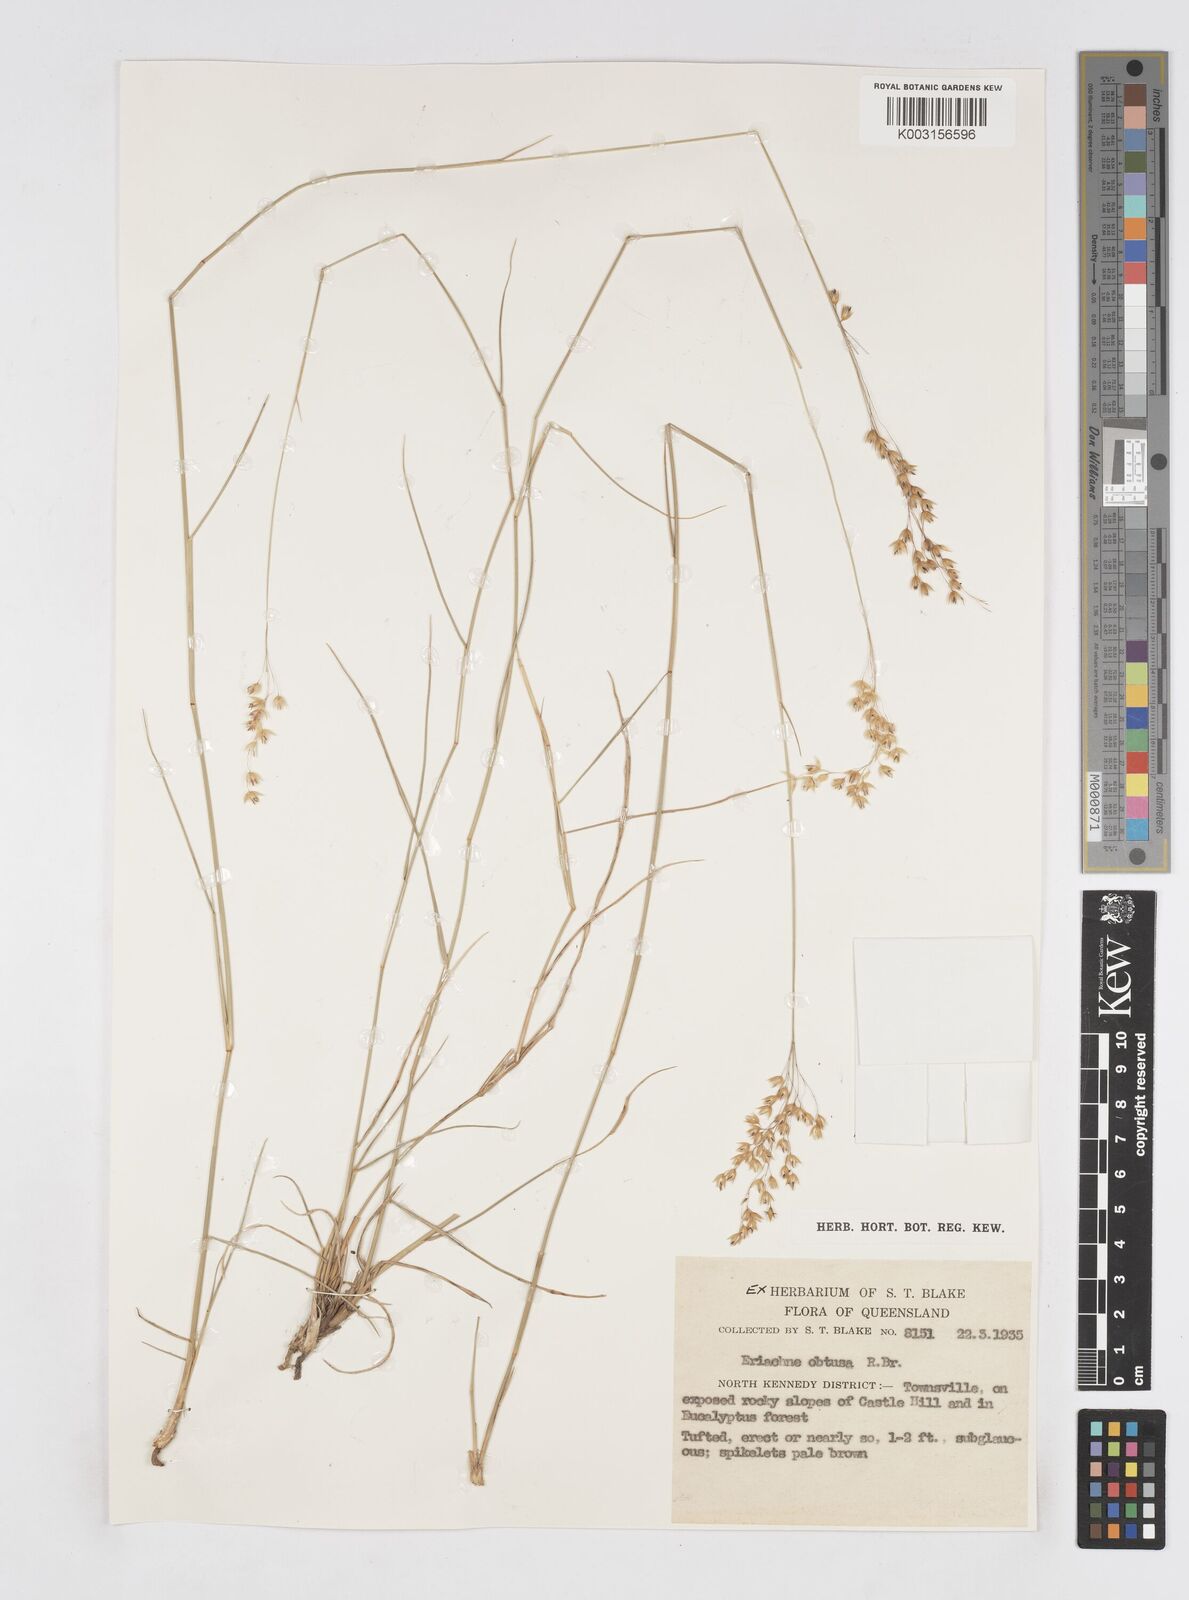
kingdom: Plantae
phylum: Tracheophyta
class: Liliopsida
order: Poales
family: Poaceae
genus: Eriachne
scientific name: Eriachne obtusa
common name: Northern wanderrie grass
